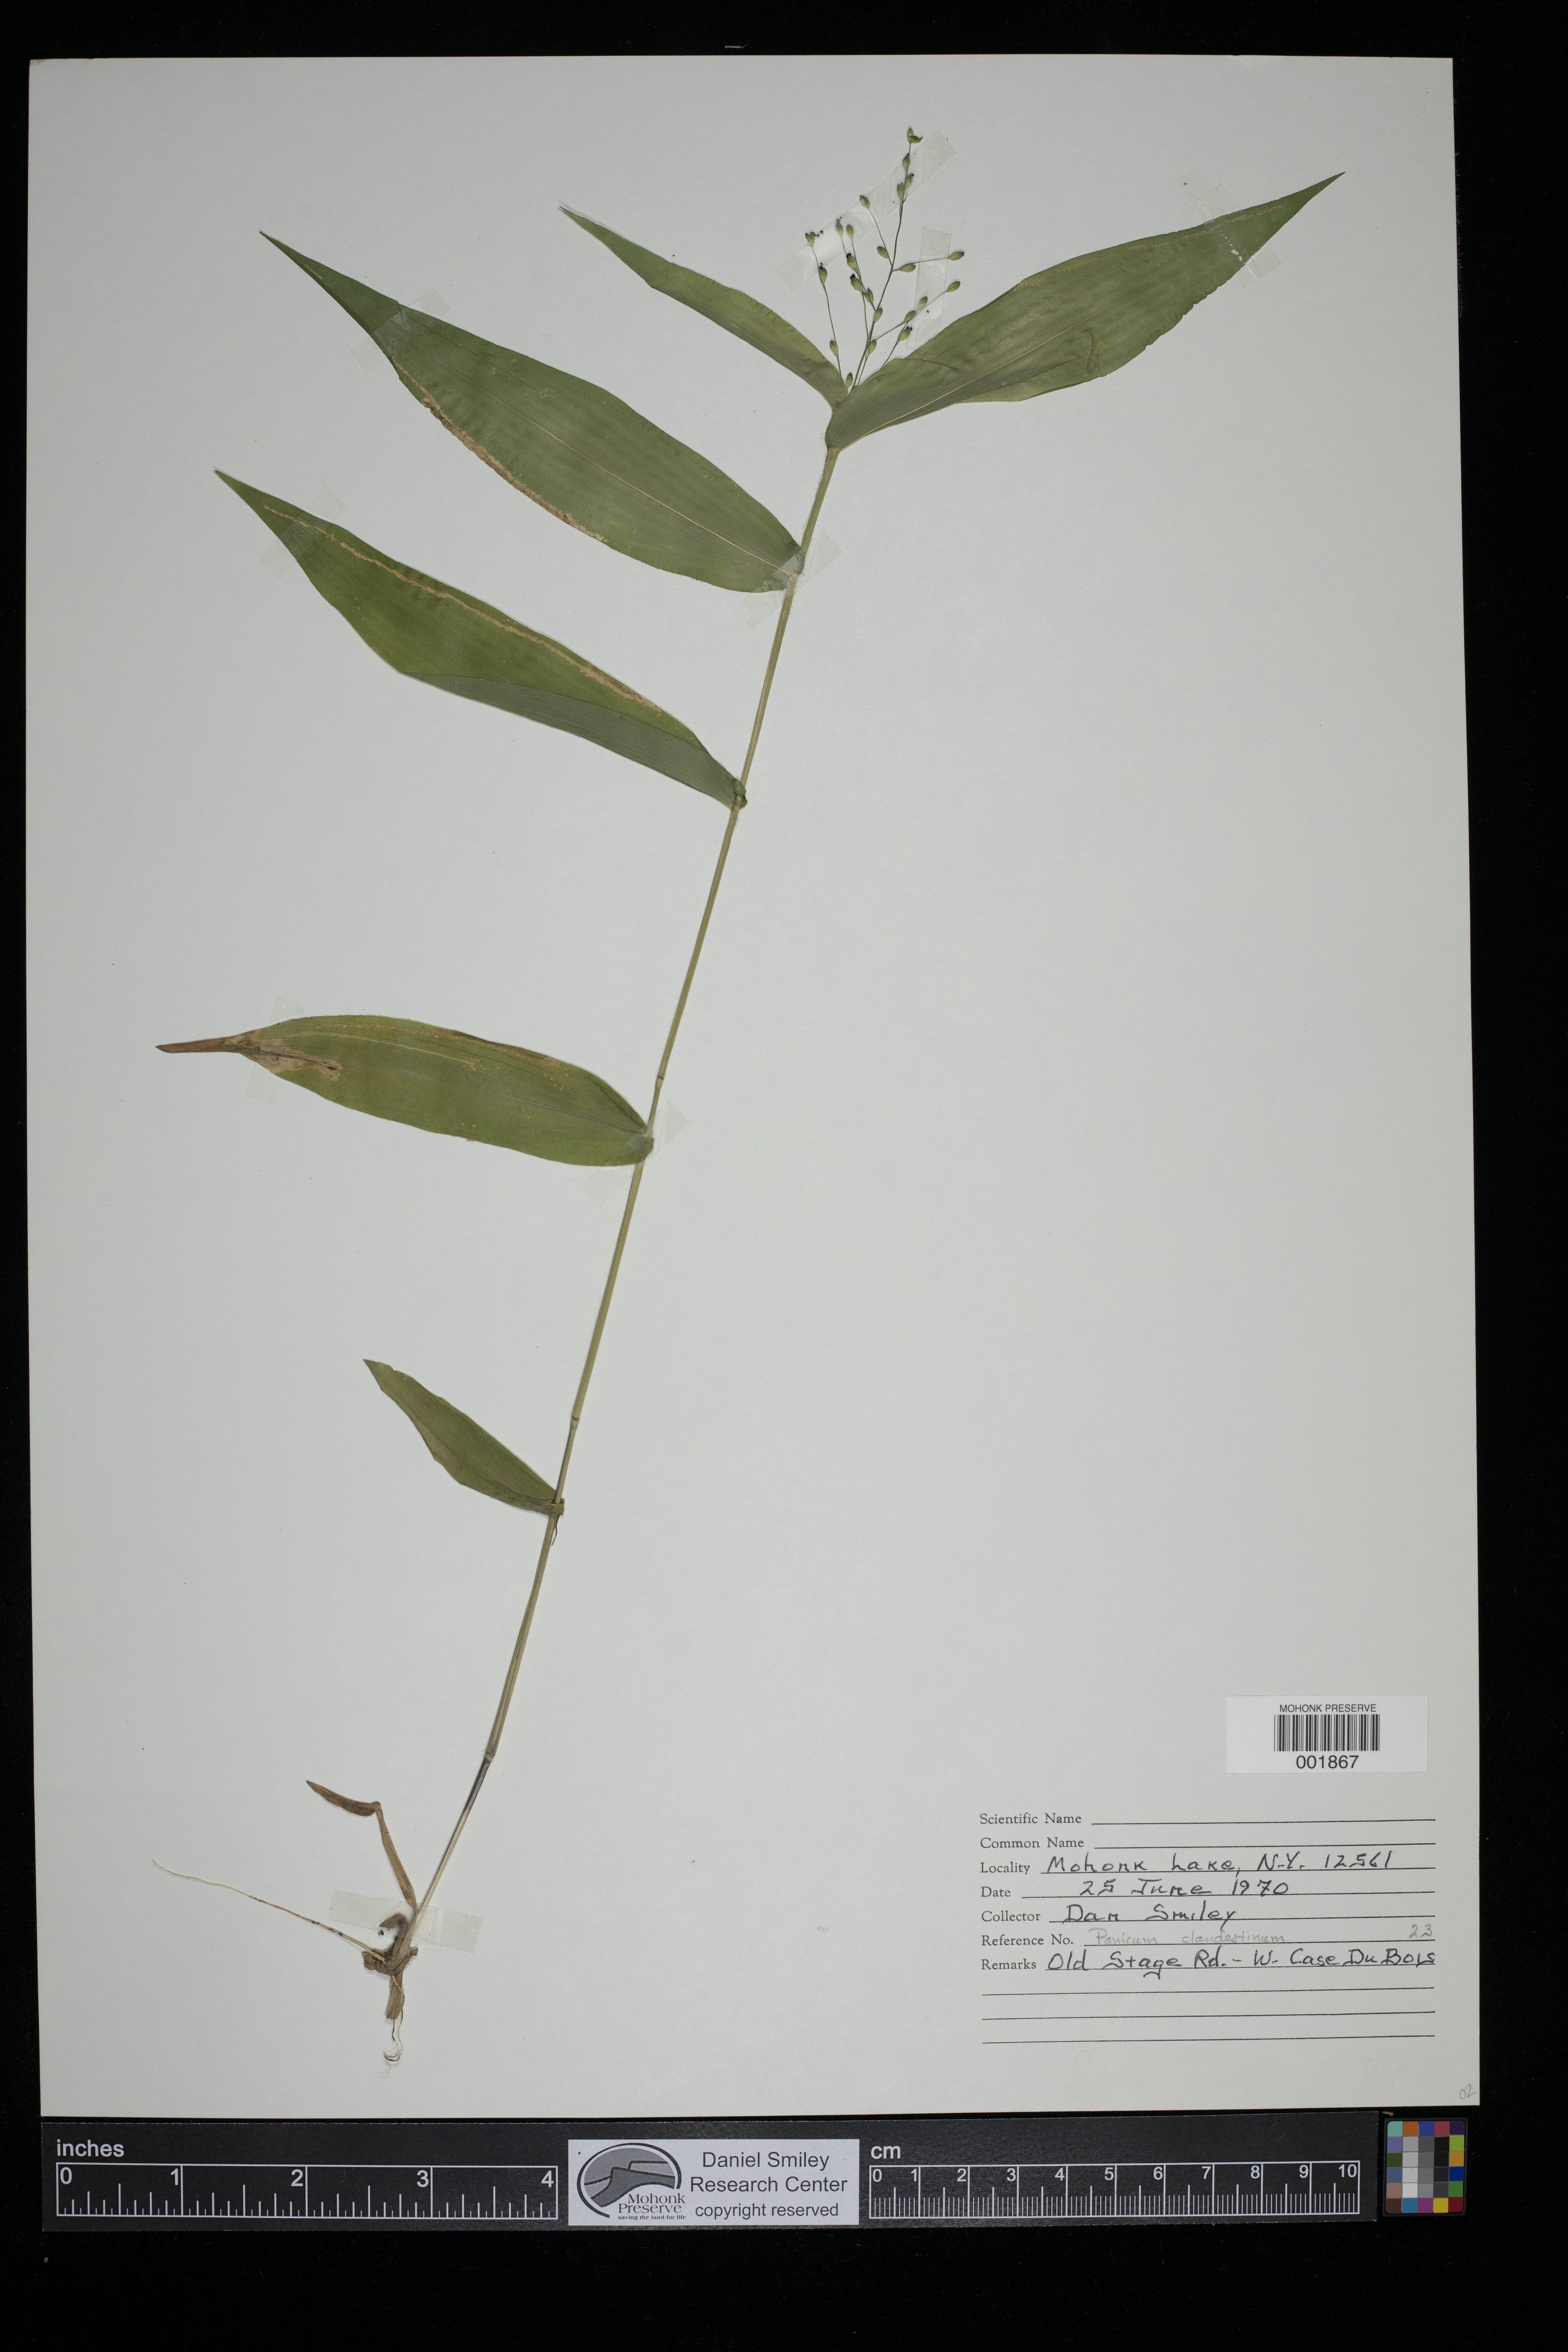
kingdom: Plantae
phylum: Tracheophyta
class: Liliopsida
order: Poales
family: Poaceae
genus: Dichanthelium
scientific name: Dichanthelium clandestinum
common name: Deer-tongue grass
